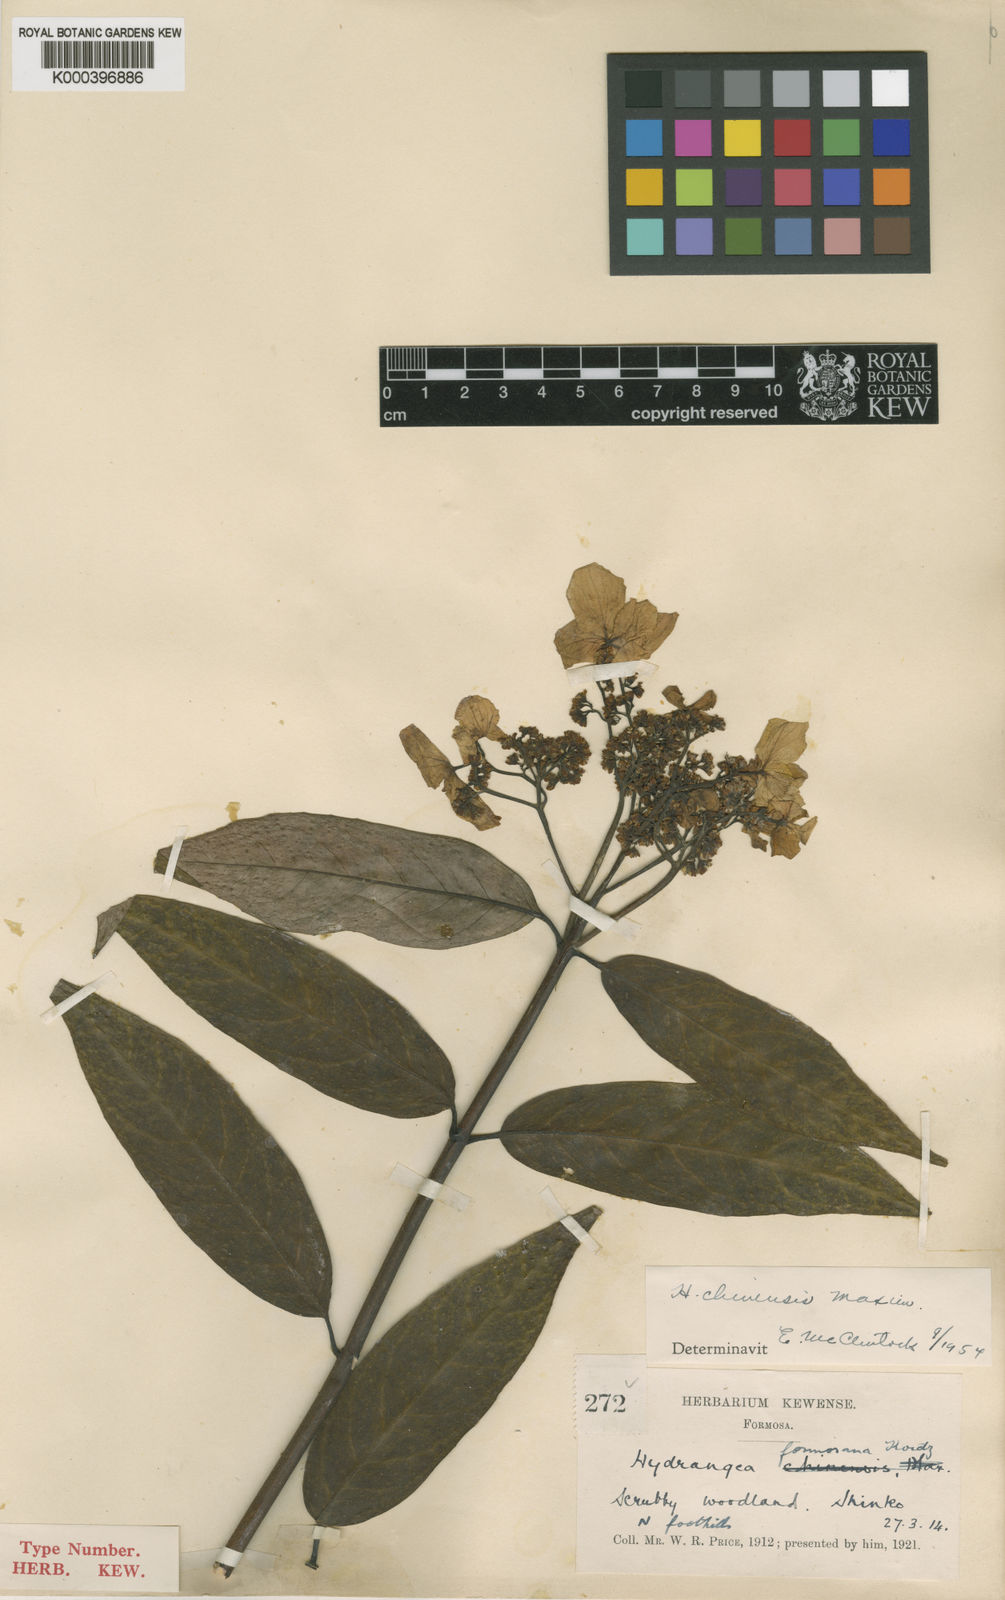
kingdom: Plantae
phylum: Tracheophyta
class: Magnoliopsida
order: Cornales
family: Hydrangeaceae
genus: Hydrangea
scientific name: Hydrangea chinensis
